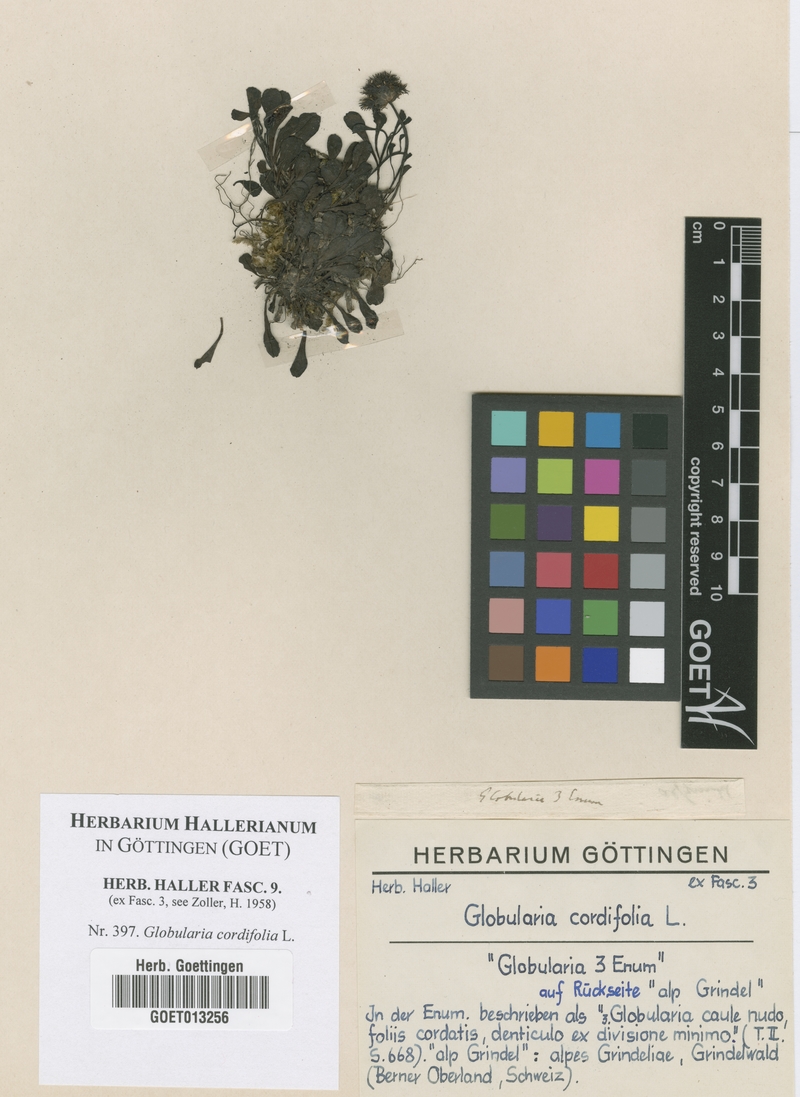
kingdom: Plantae
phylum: Tracheophyta
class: Magnoliopsida
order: Lamiales
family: Plantaginaceae
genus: Globularia
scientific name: Globularia cordifolia
